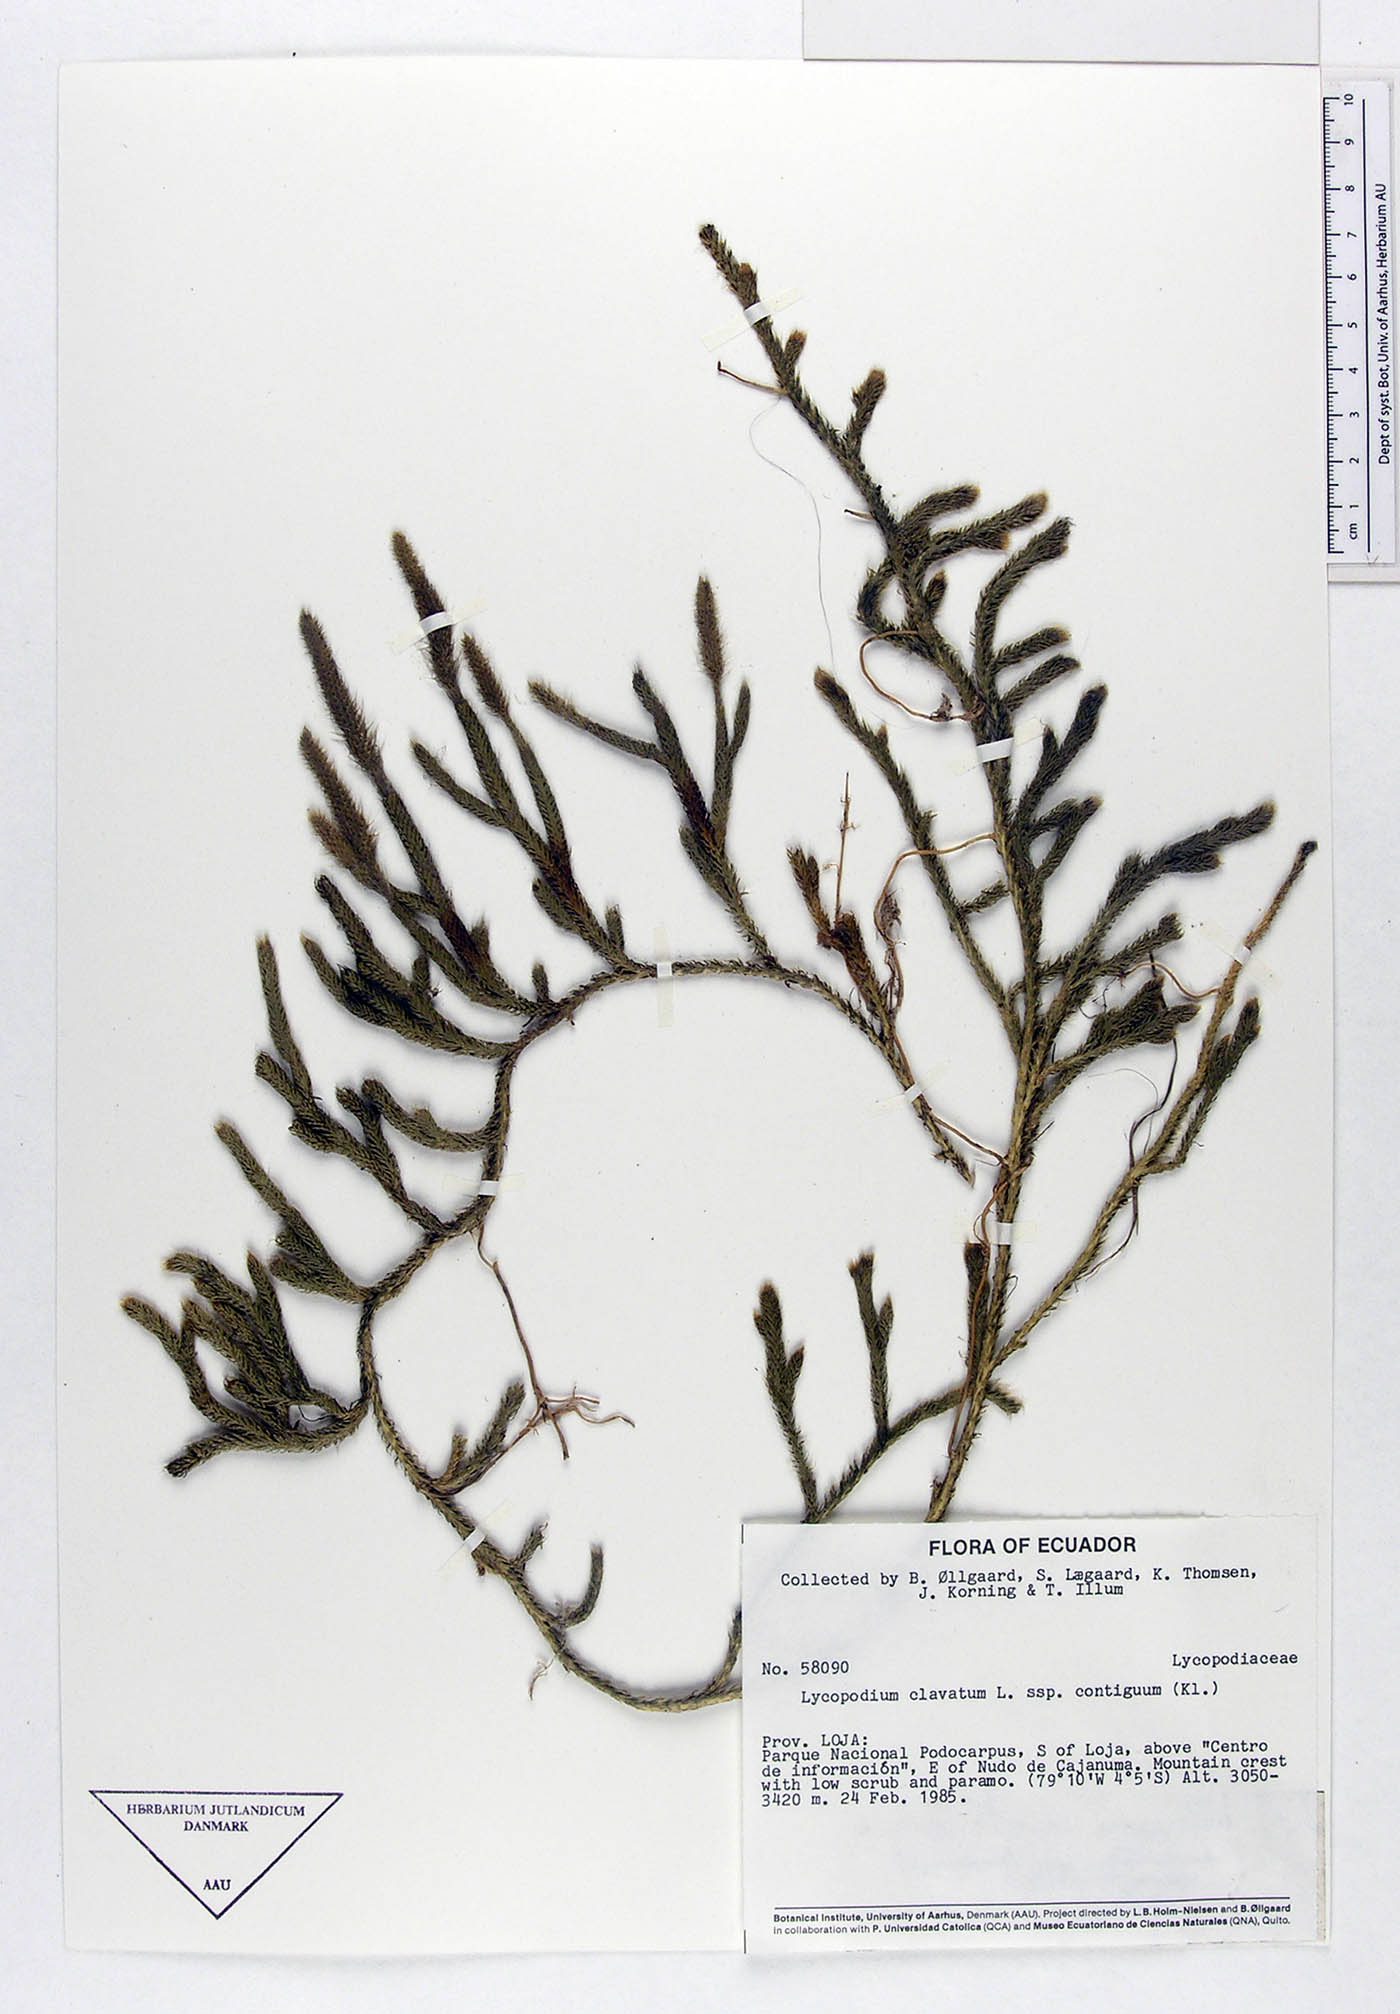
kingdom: Plantae
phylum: Tracheophyta
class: Lycopodiopsida
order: Lycopodiales
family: Lycopodiaceae
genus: Lycopodium
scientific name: Lycopodium clavatum
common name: Stag's-horn clubmoss
